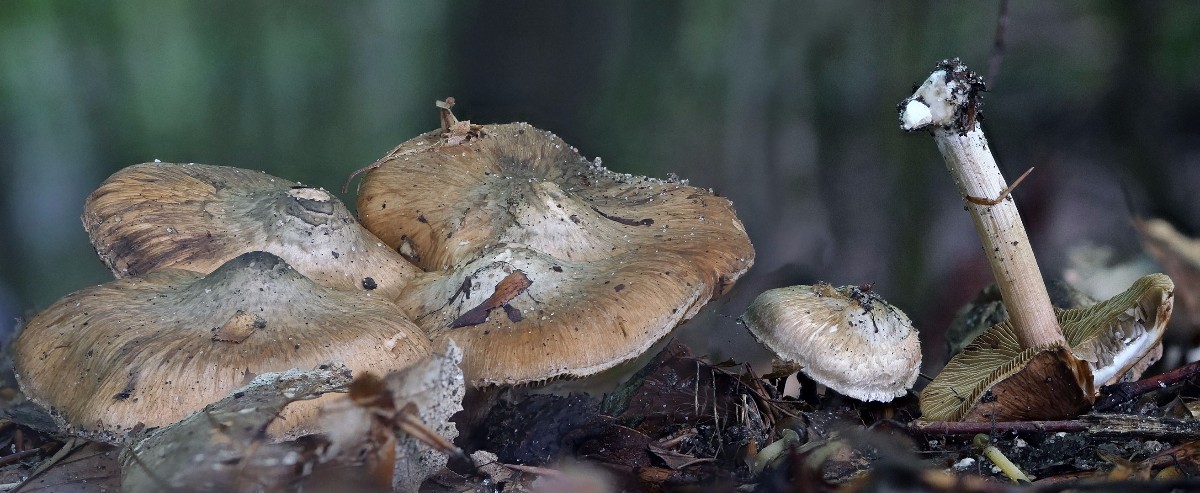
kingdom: Fungi
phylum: Basidiomycota
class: Agaricomycetes
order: Agaricales
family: Inocybaceae
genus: Inocybe
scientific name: Inocybe corydalina
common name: grønpuklet trævlhat
